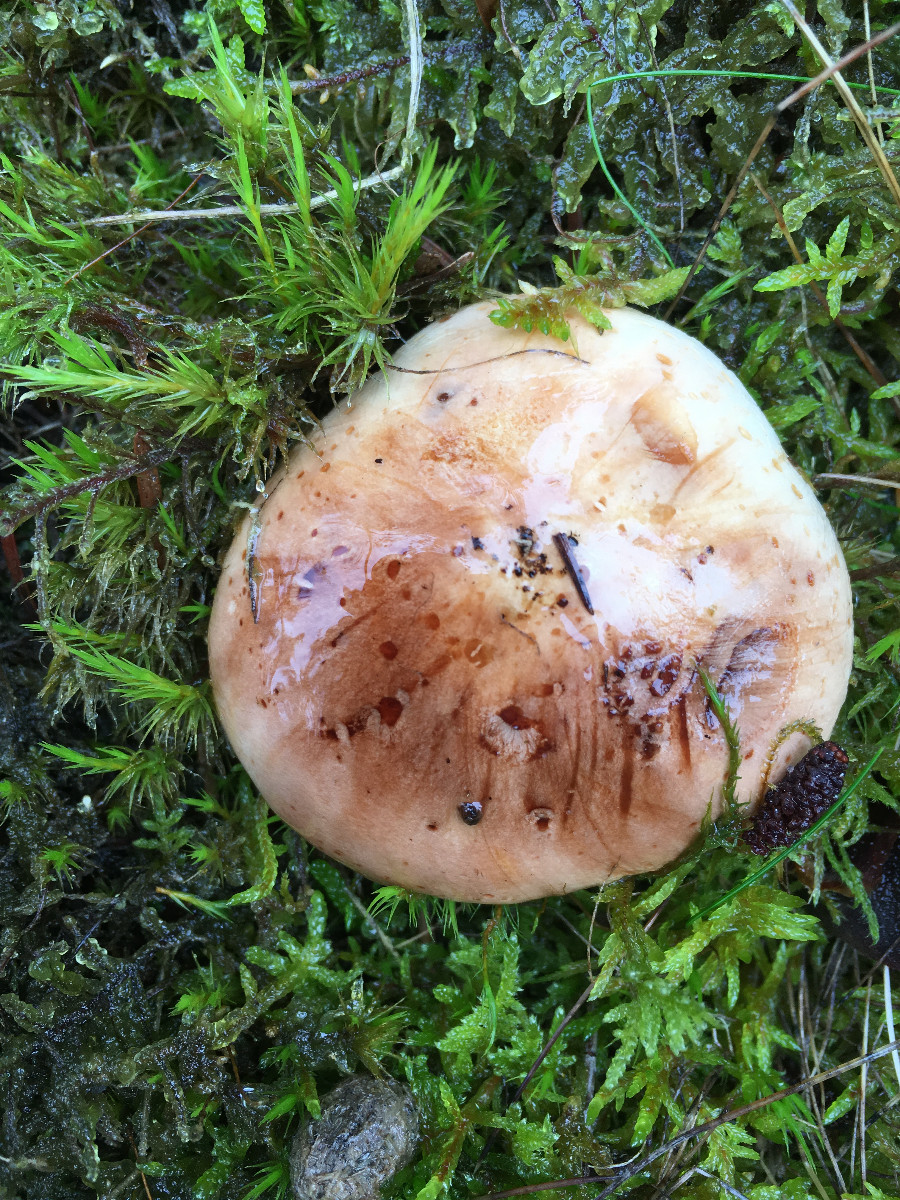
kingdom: Fungi
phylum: Basidiomycota
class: Agaricomycetes
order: Agaricales
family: Tricholomataceae
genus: Tricholoma
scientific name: Tricholoma
